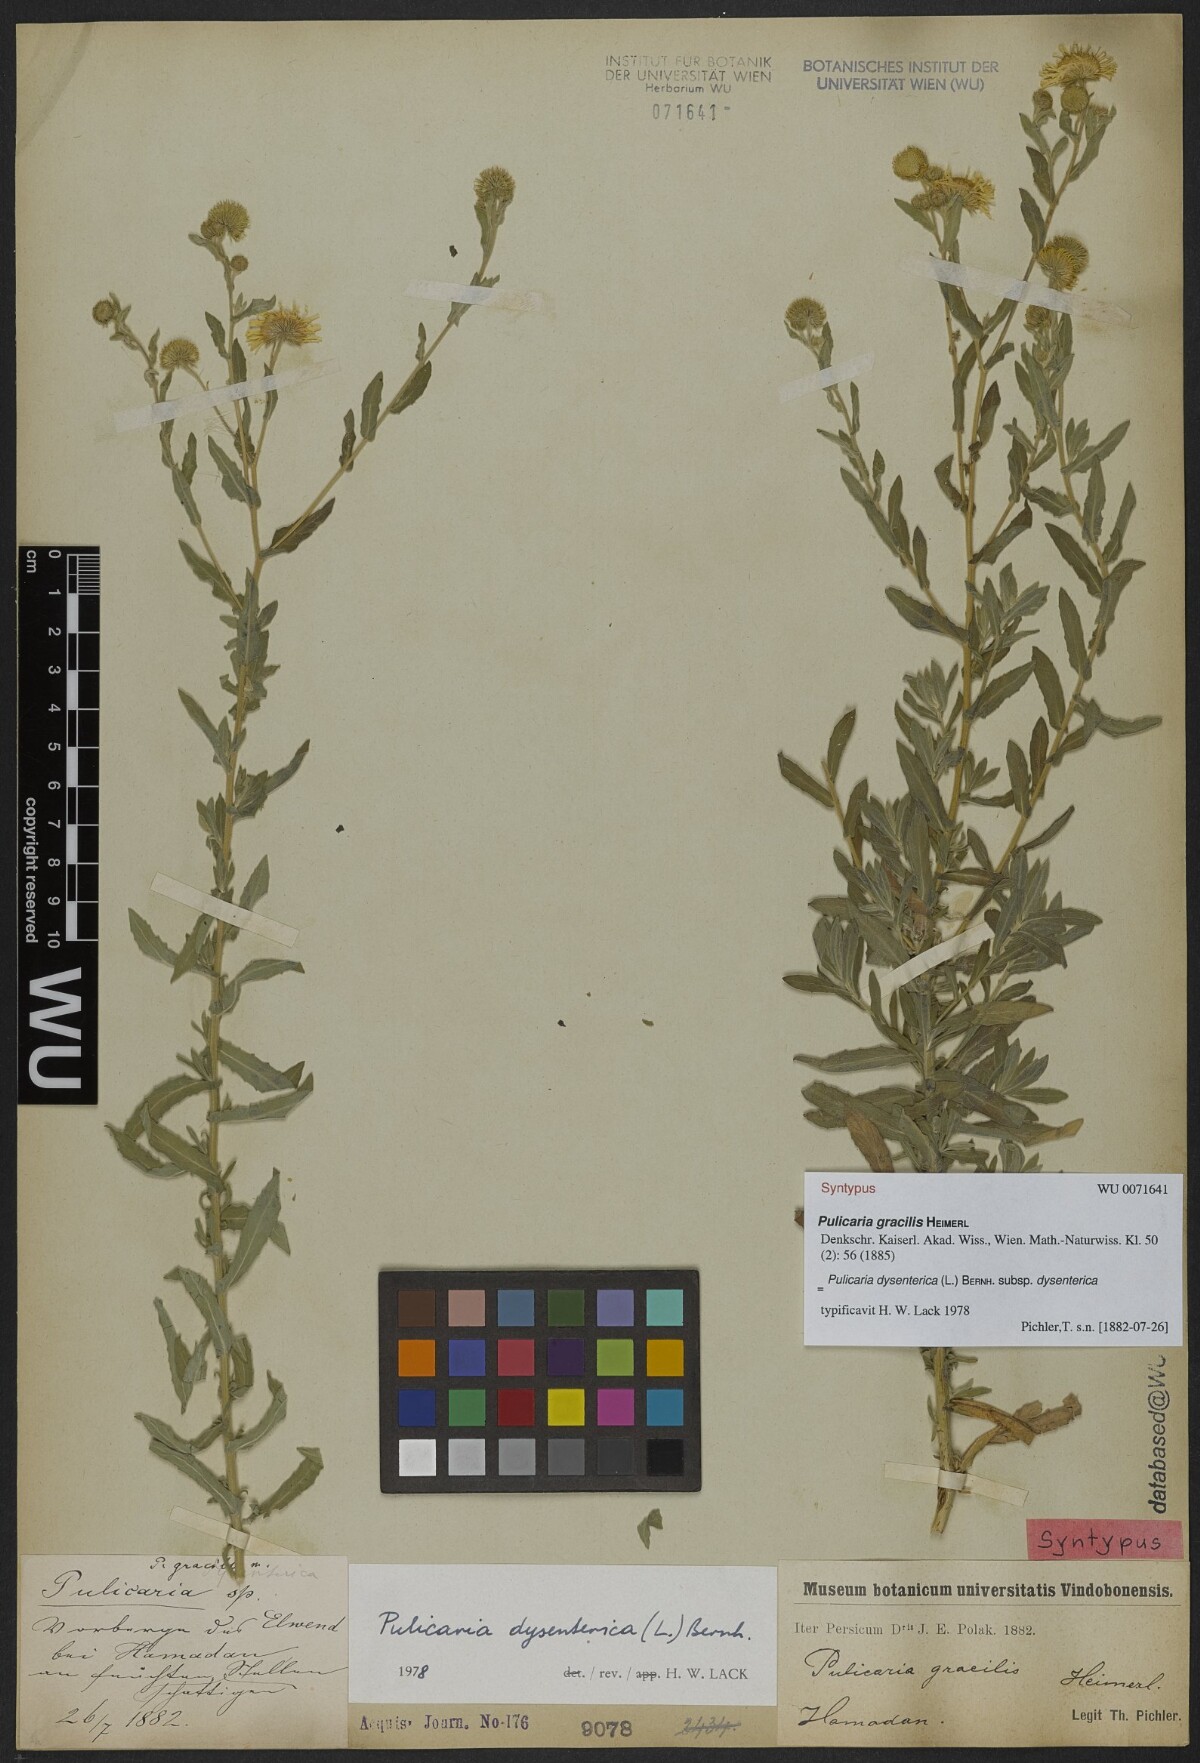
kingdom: Plantae
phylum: Tracheophyta
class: Magnoliopsida
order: Asterales
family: Asteraceae
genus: Pulicaria
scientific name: Pulicaria dysenterica
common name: Common fleabane
